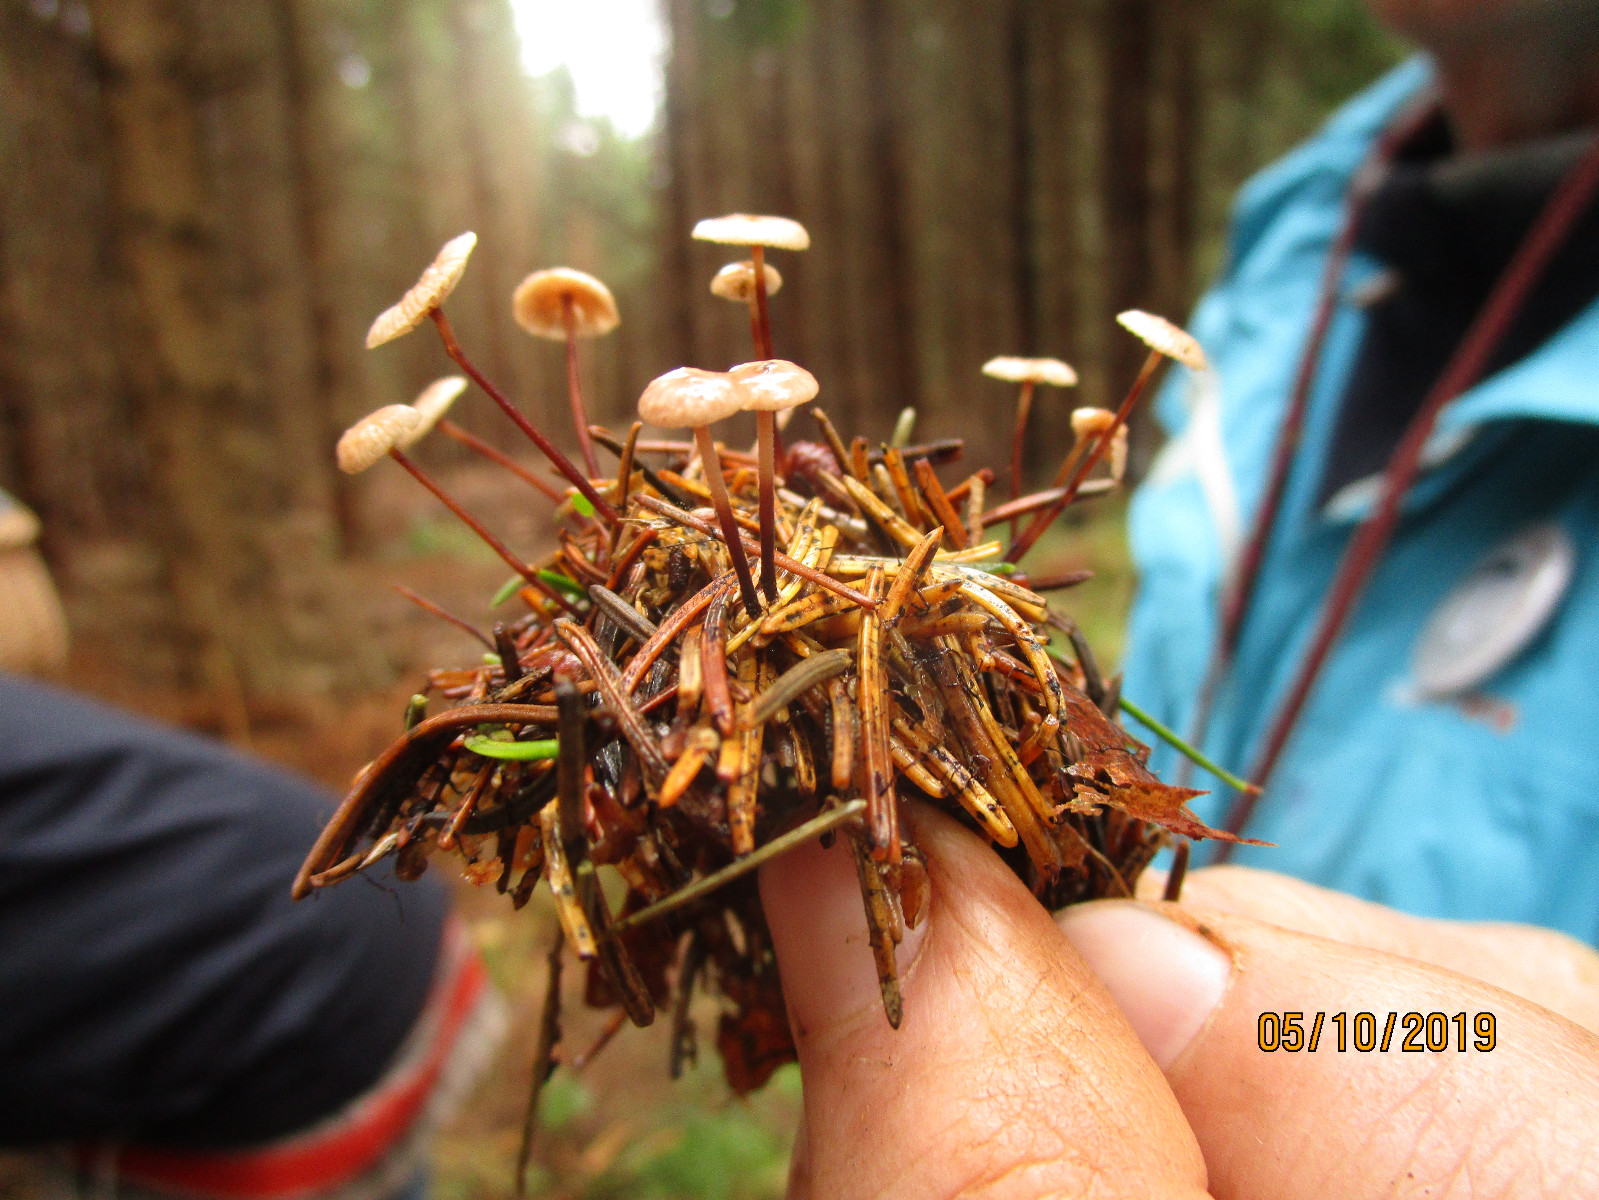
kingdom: Fungi
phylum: Basidiomycota
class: Agaricomycetes
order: Agaricales
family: Omphalotaceae
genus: Paragymnopus
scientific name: Paragymnopus perforans
